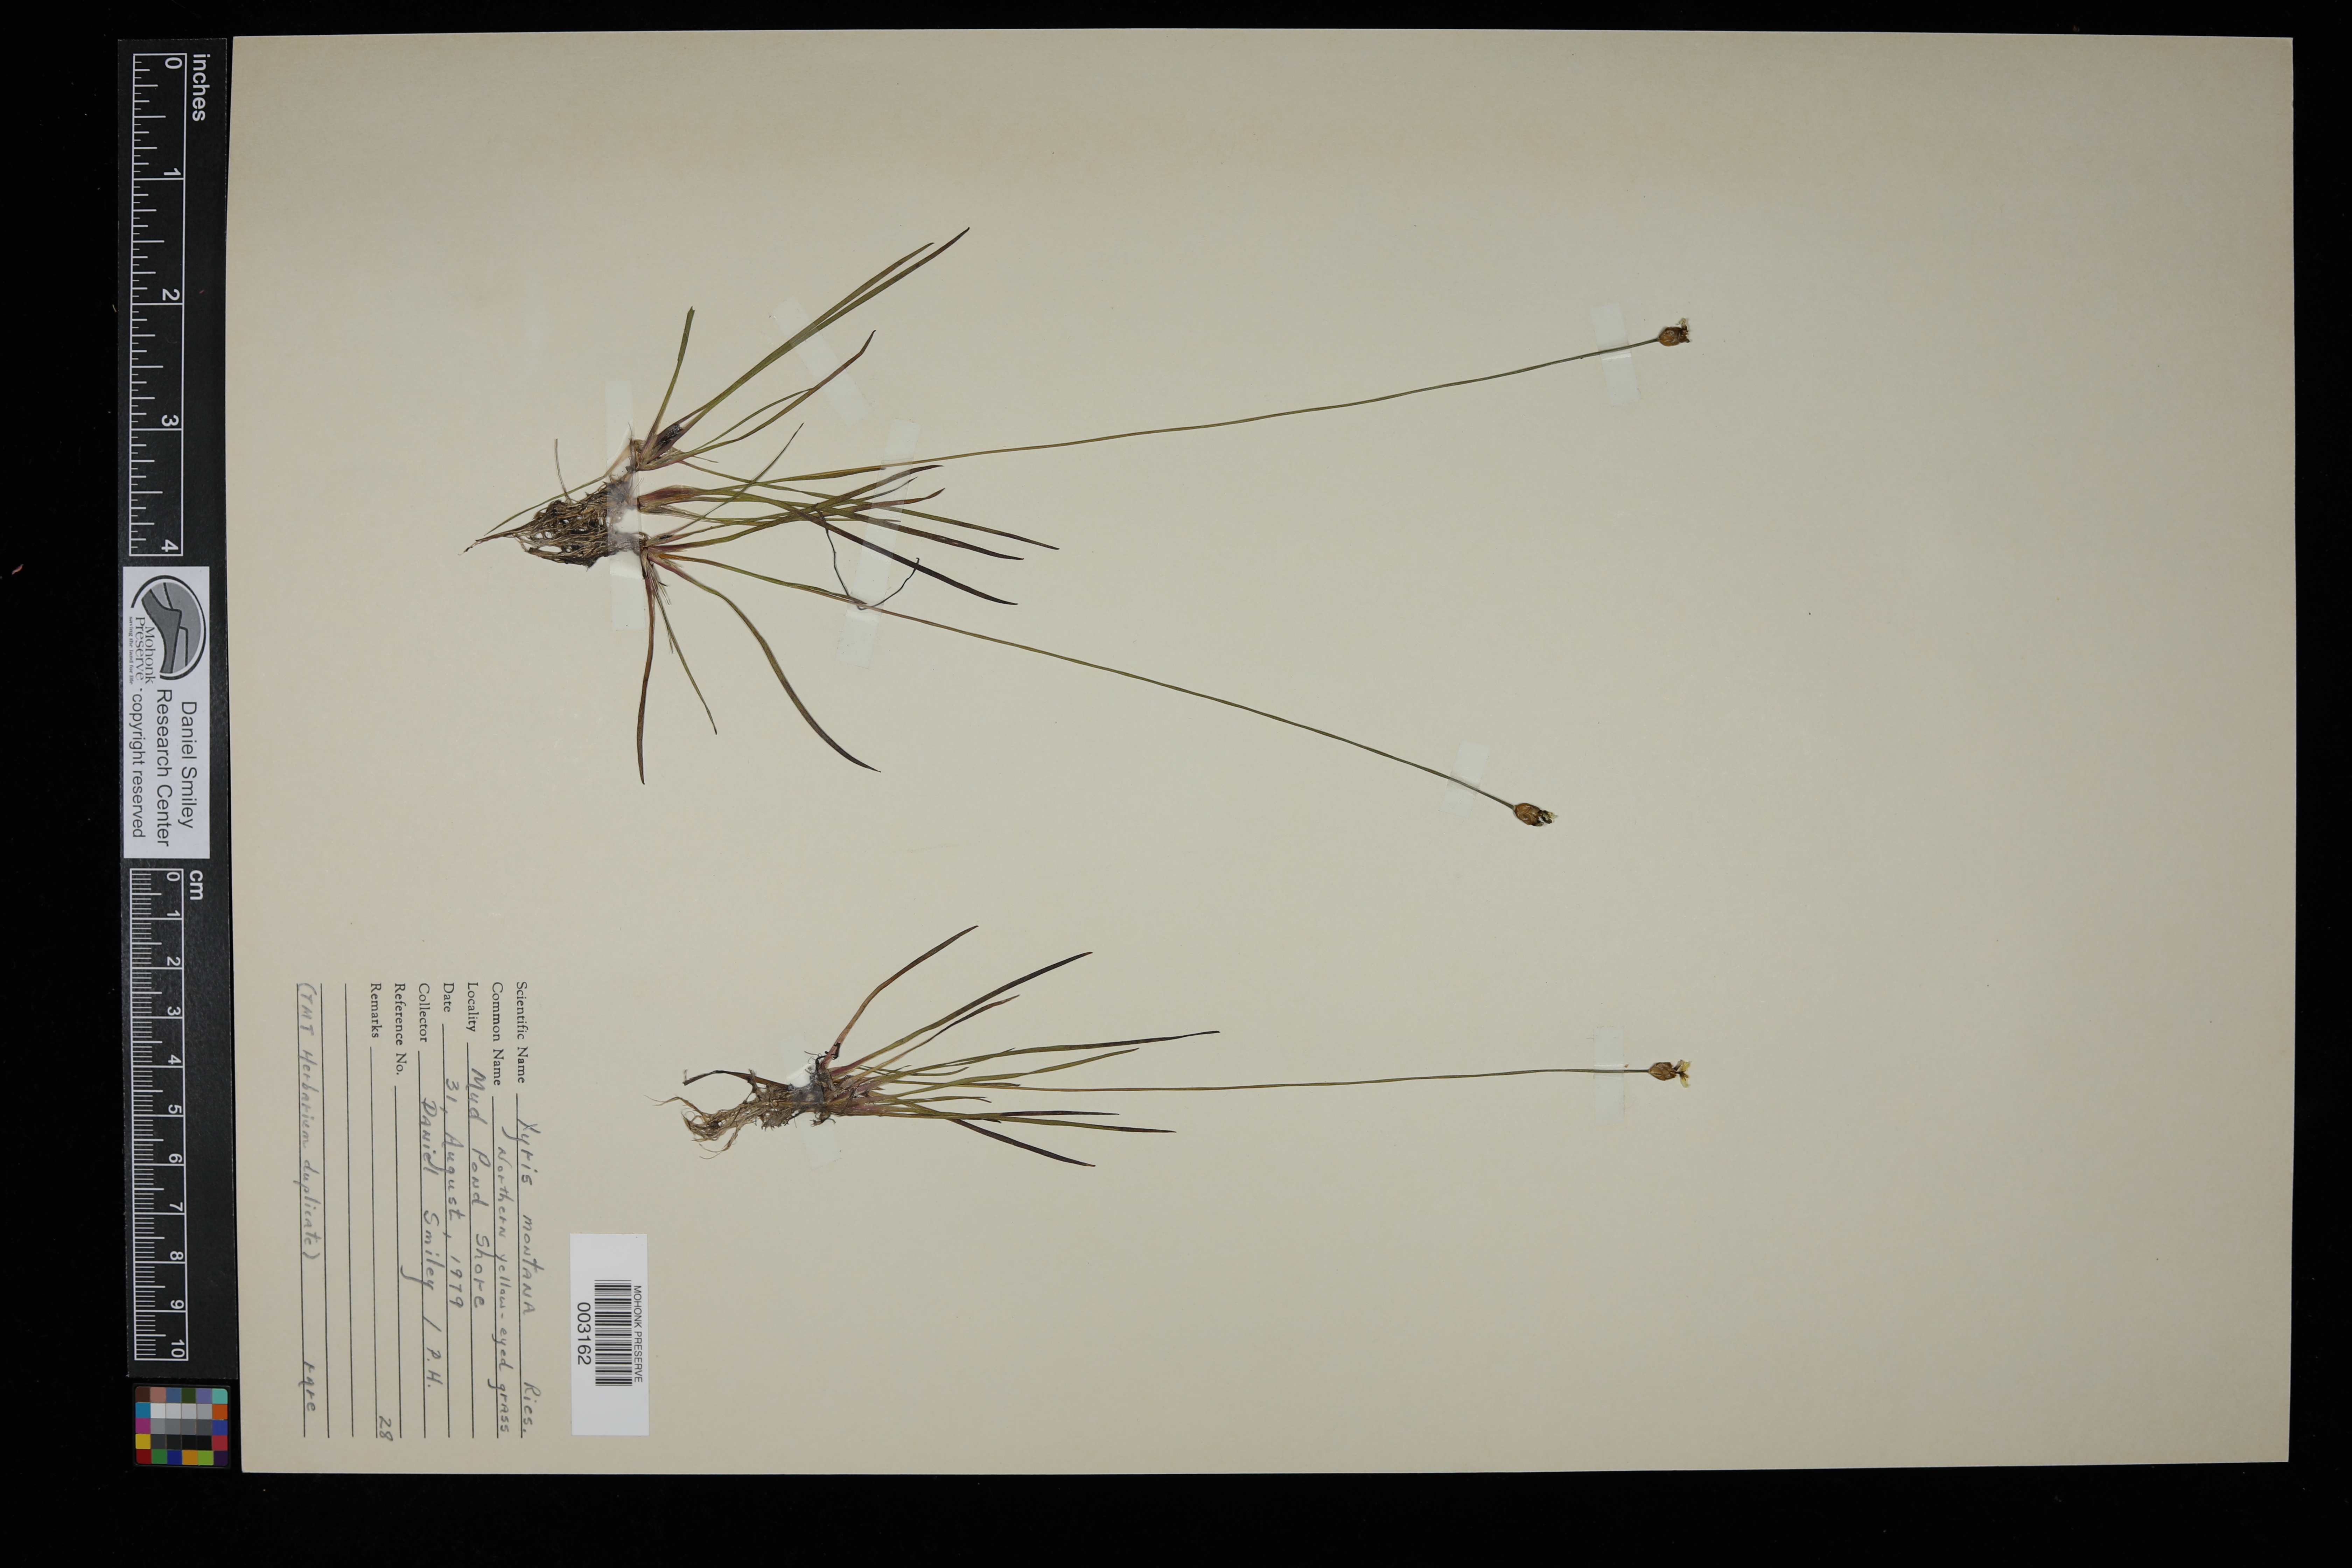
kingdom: Plantae
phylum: Tracheophyta
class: Liliopsida
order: Poales
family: Xyridaceae
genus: Xyris
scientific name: Xyris montana
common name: Northern yellow-eyed-grass
